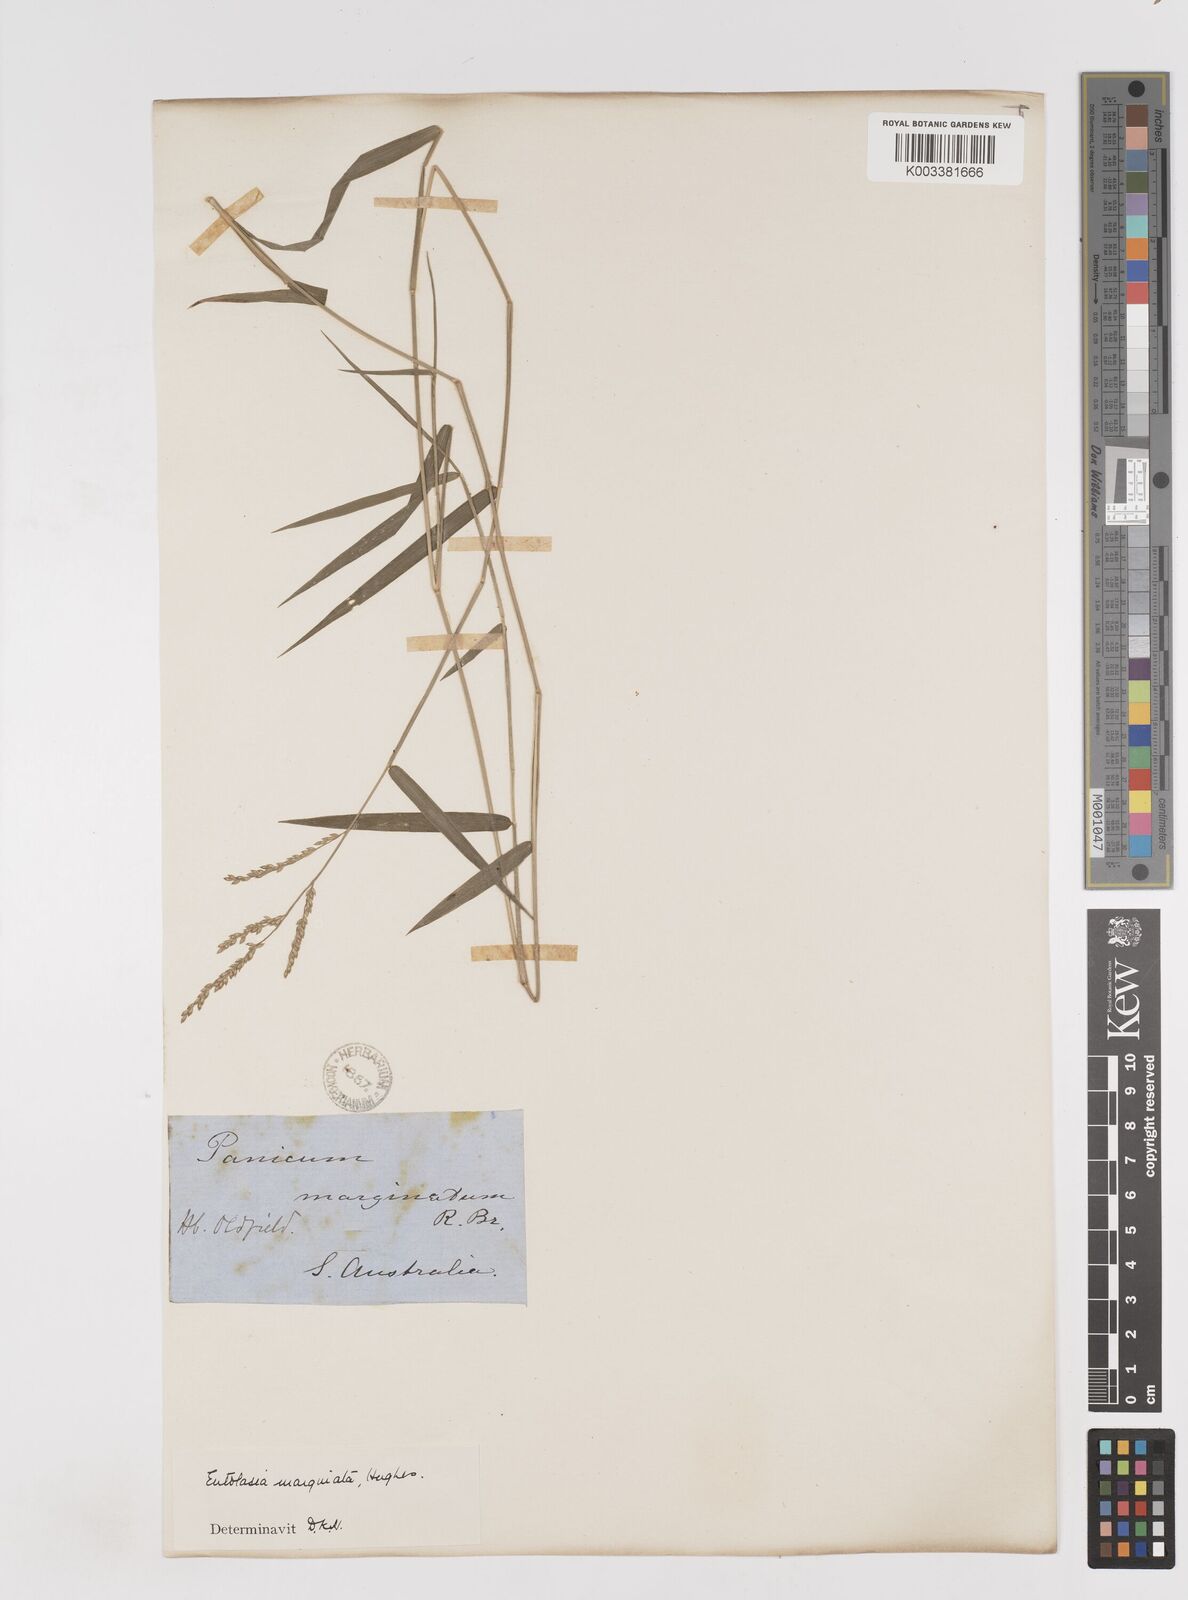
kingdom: Plantae
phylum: Tracheophyta
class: Liliopsida
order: Poales
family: Poaceae
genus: Entolasia
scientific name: Entolasia marginata
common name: Australian panicgrass
